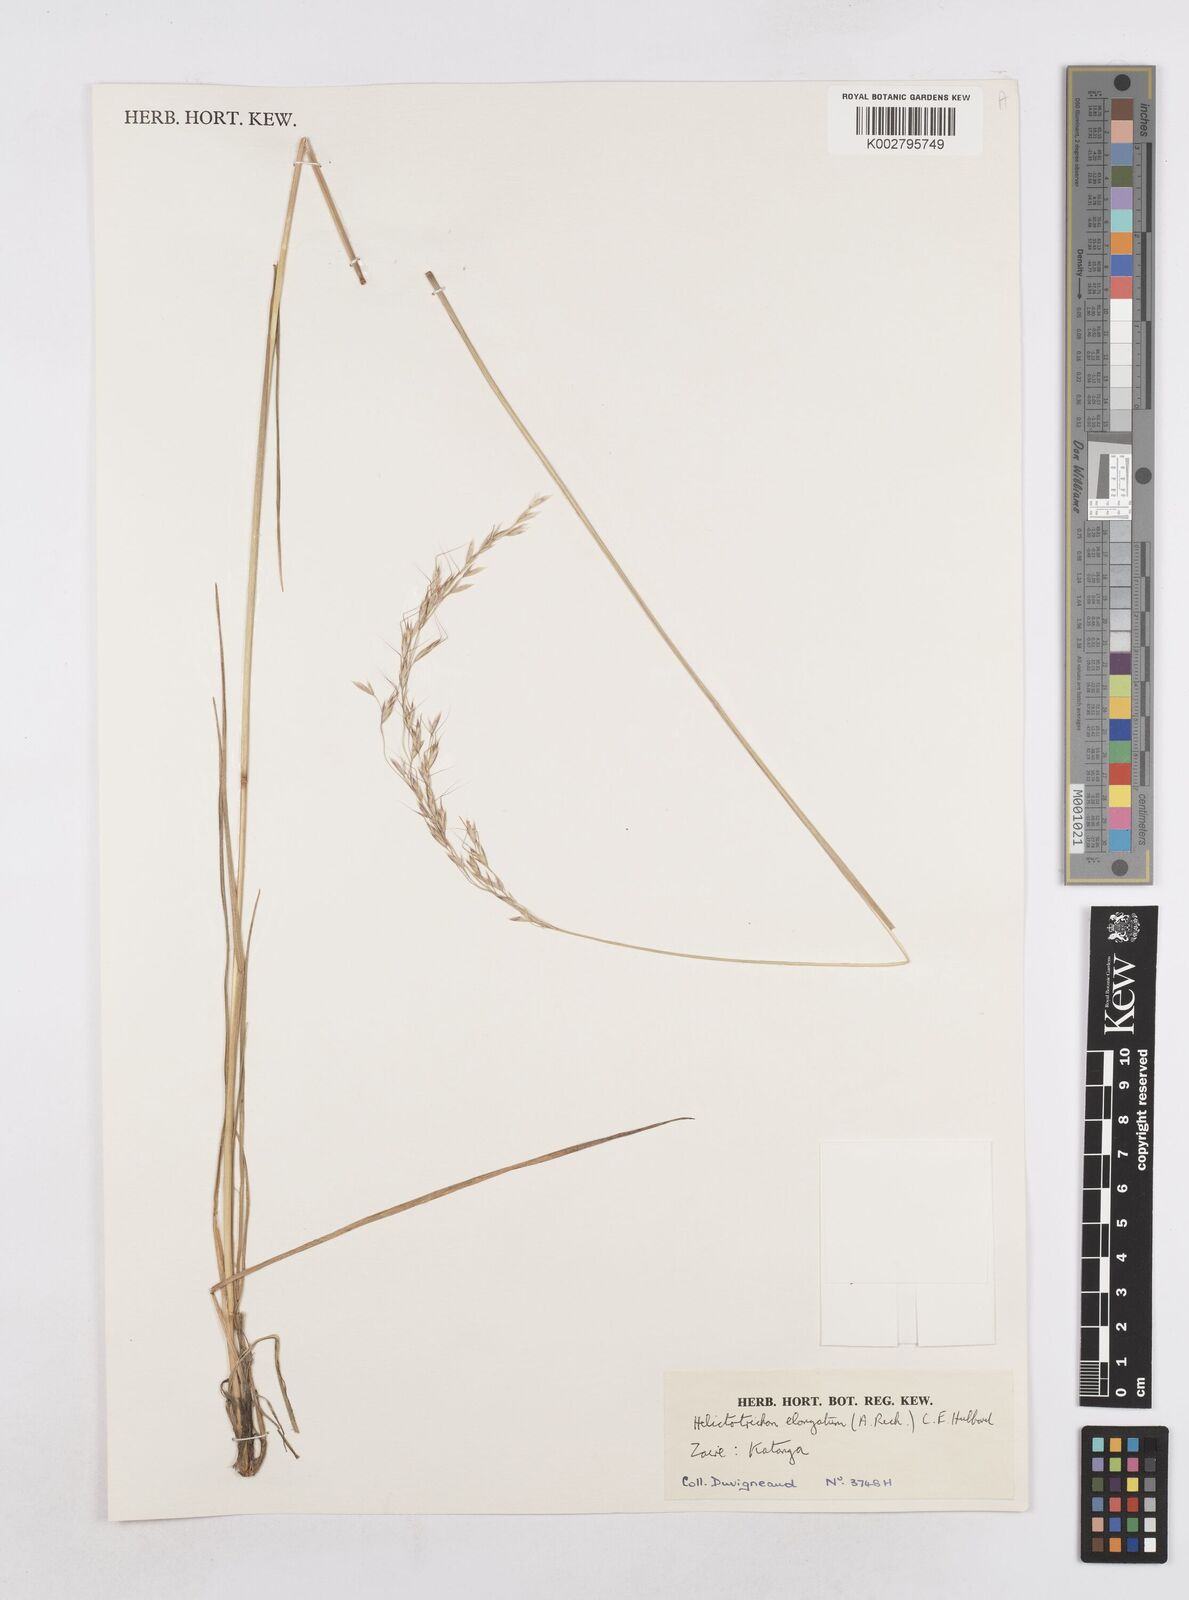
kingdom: Plantae
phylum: Tracheophyta
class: Liliopsida
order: Poales
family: Poaceae
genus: Trisetopsis
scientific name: Trisetopsis elongata
